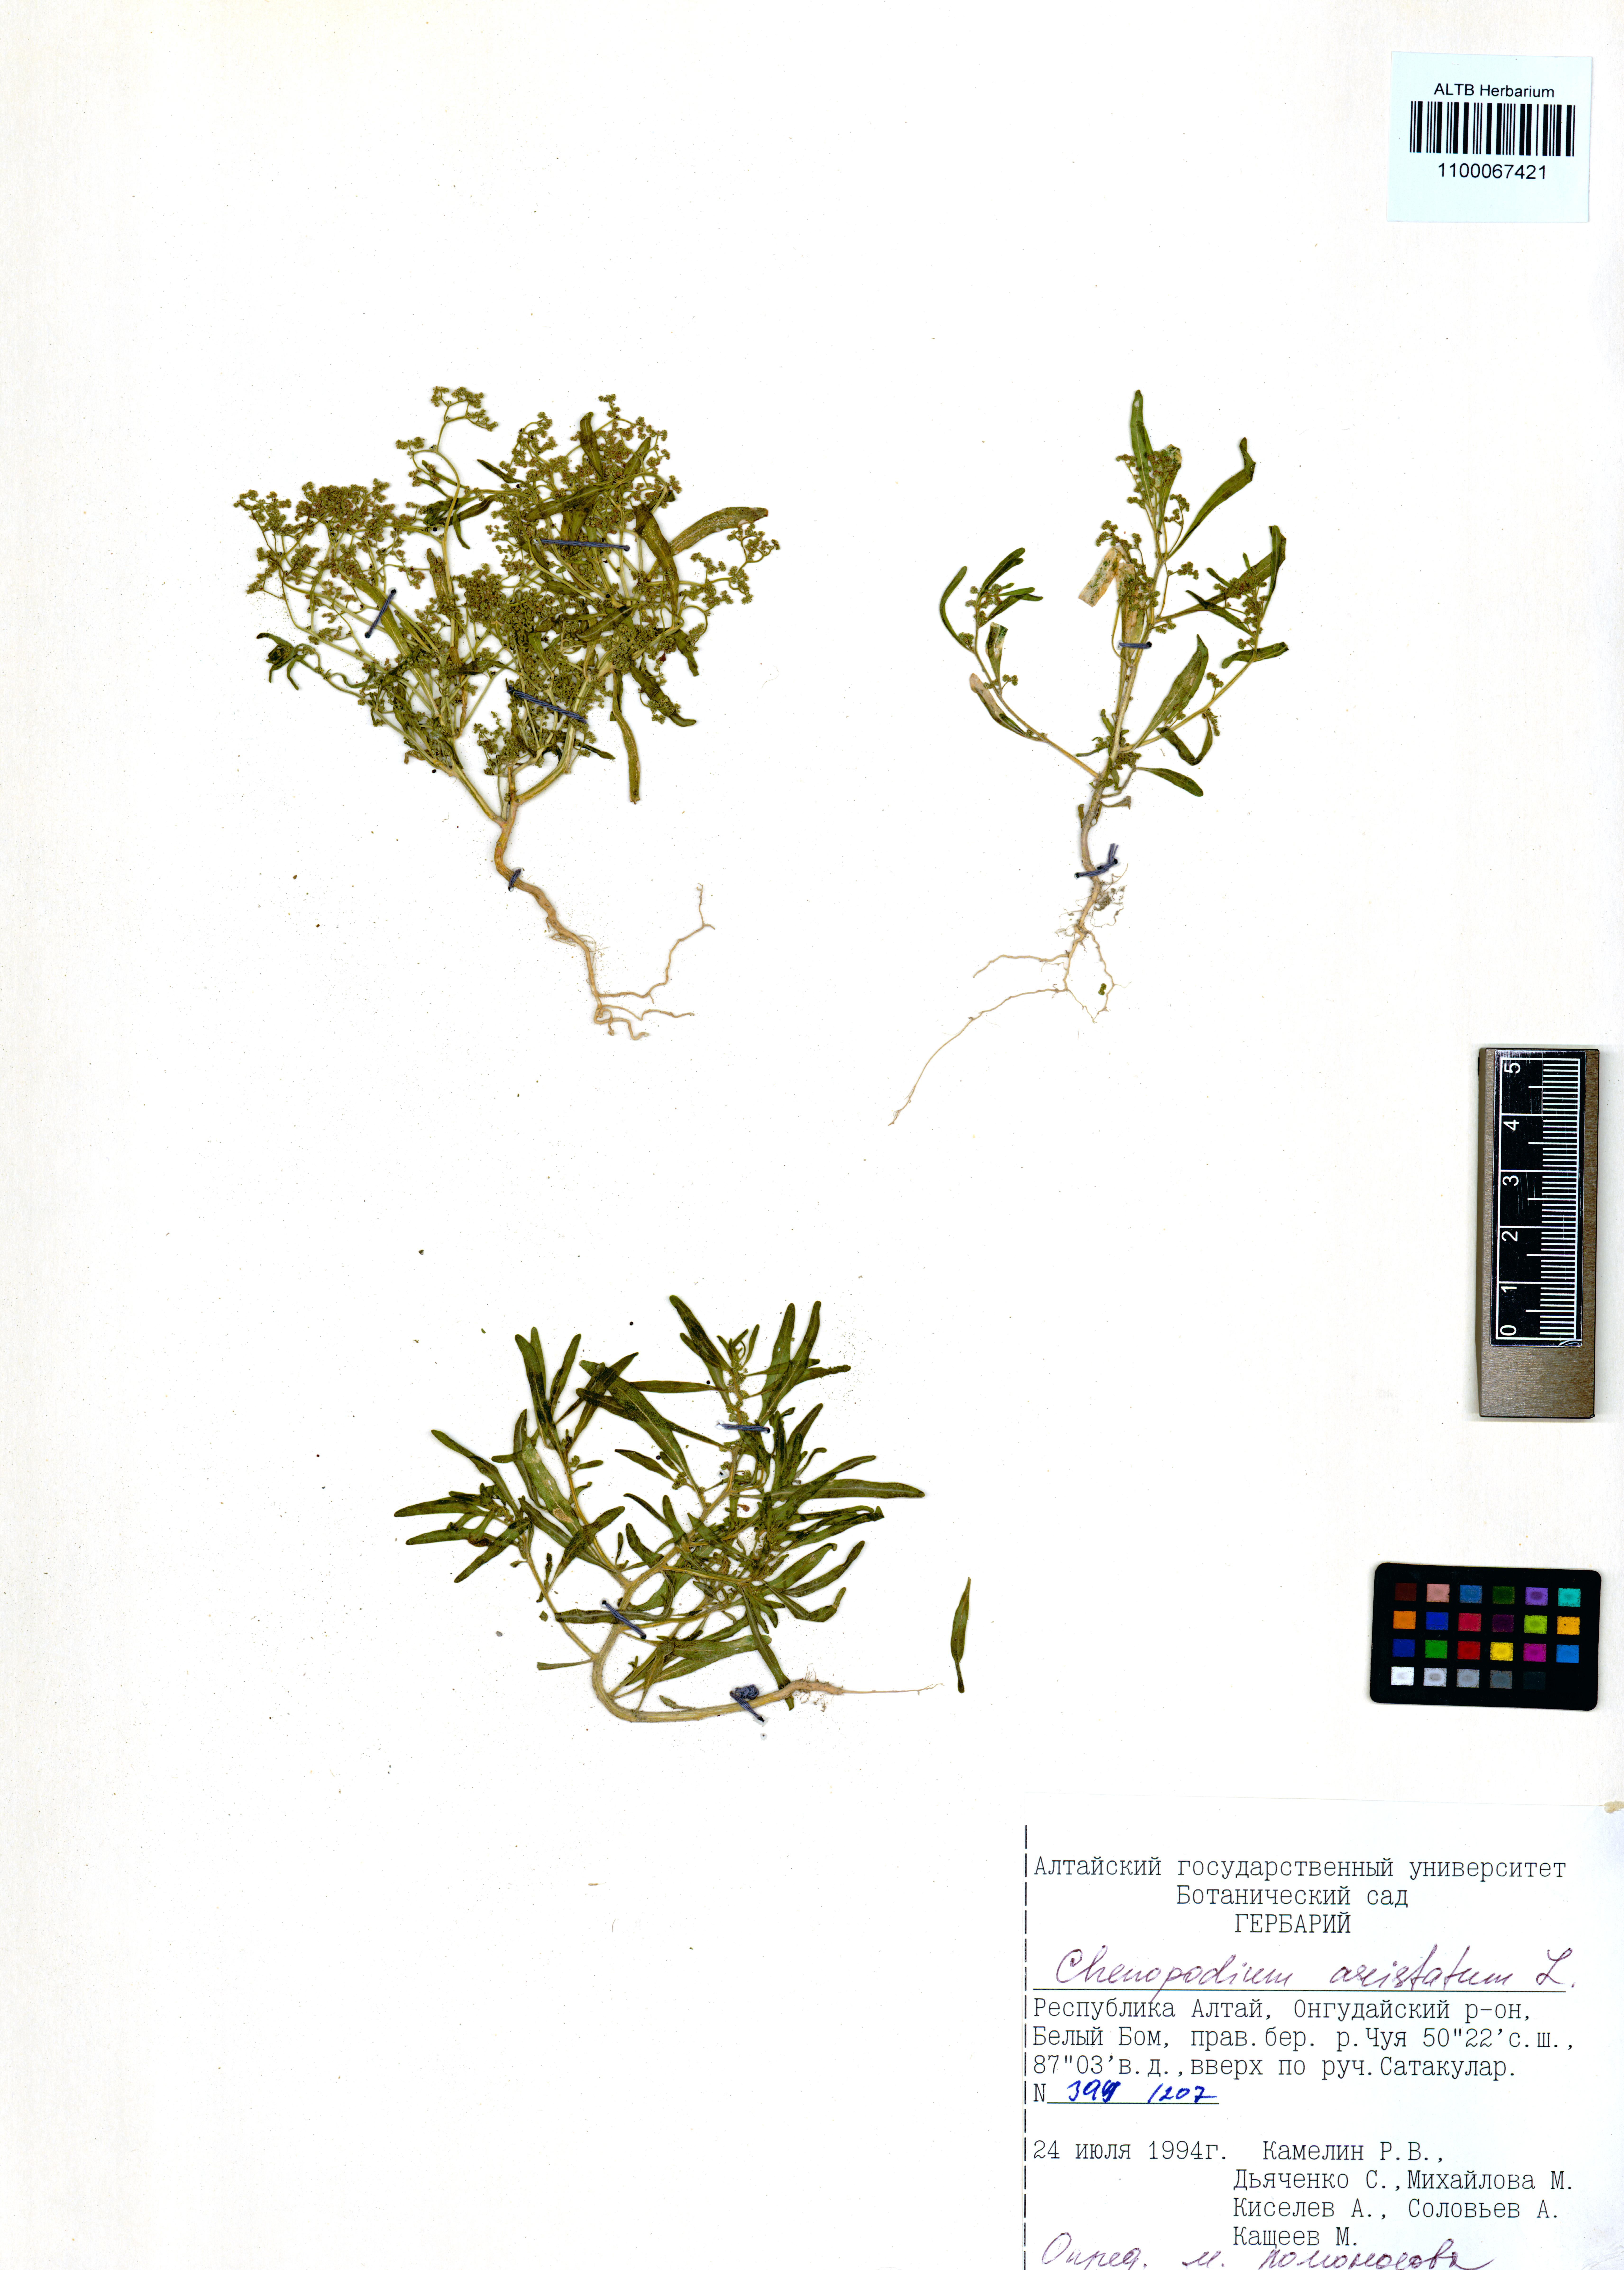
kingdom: Plantae
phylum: Tracheophyta
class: Magnoliopsida
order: Caryophyllales
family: Amaranthaceae
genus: Teloxys
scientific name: Teloxys aristata
